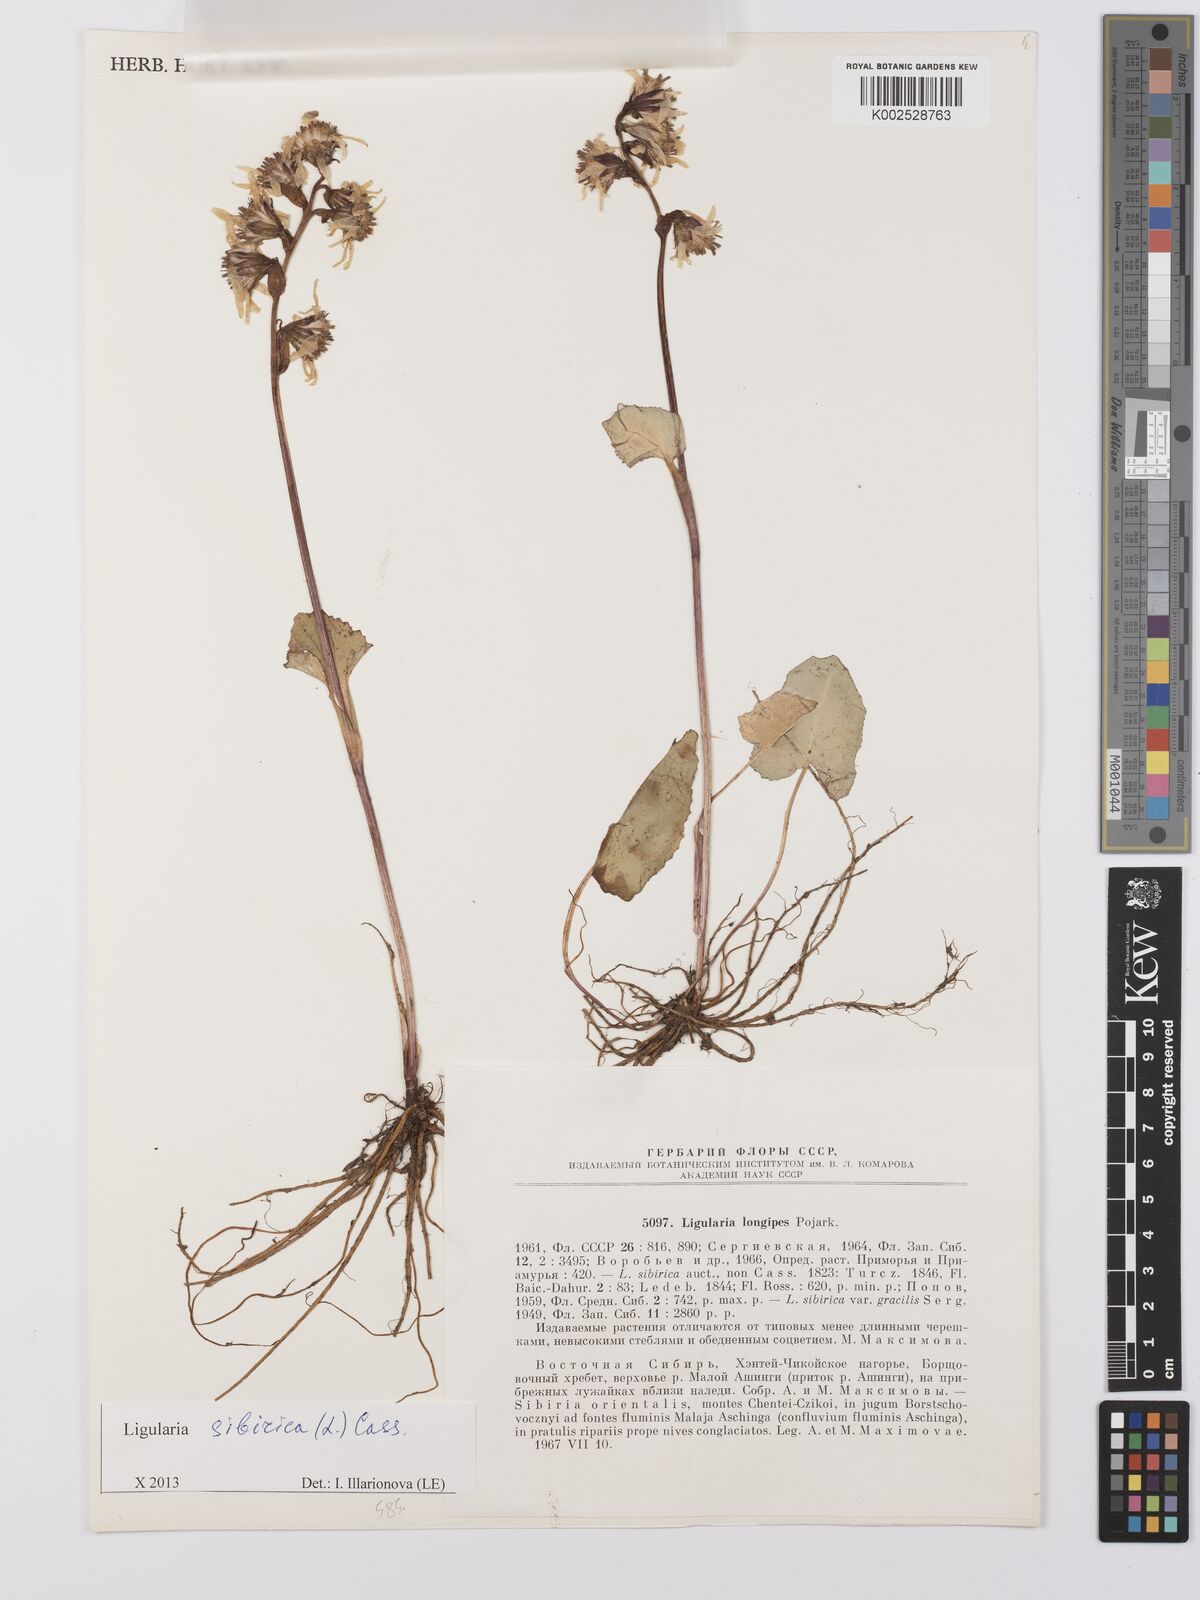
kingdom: Plantae
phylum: Tracheophyta
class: Magnoliopsida
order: Asterales
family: Asteraceae
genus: Ligularia
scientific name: Ligularia sibirica
